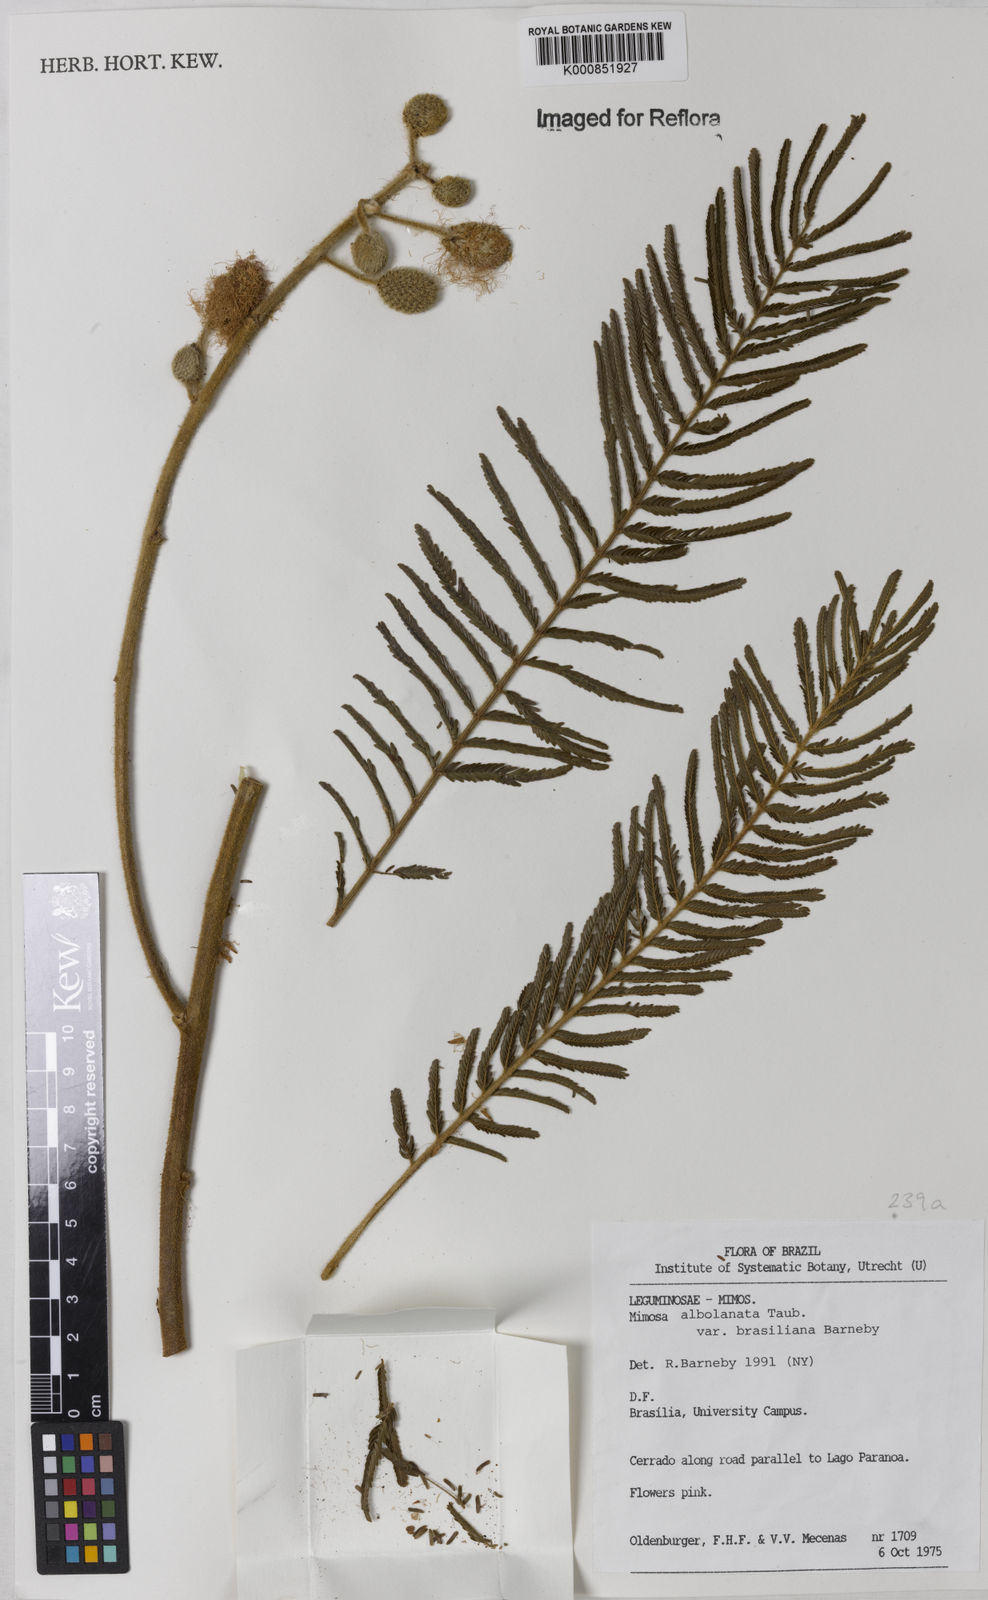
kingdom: Plantae
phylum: Tracheophyta
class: Magnoliopsida
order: Fabales
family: Fabaceae
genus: Mimosa
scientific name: Mimosa albolanata
